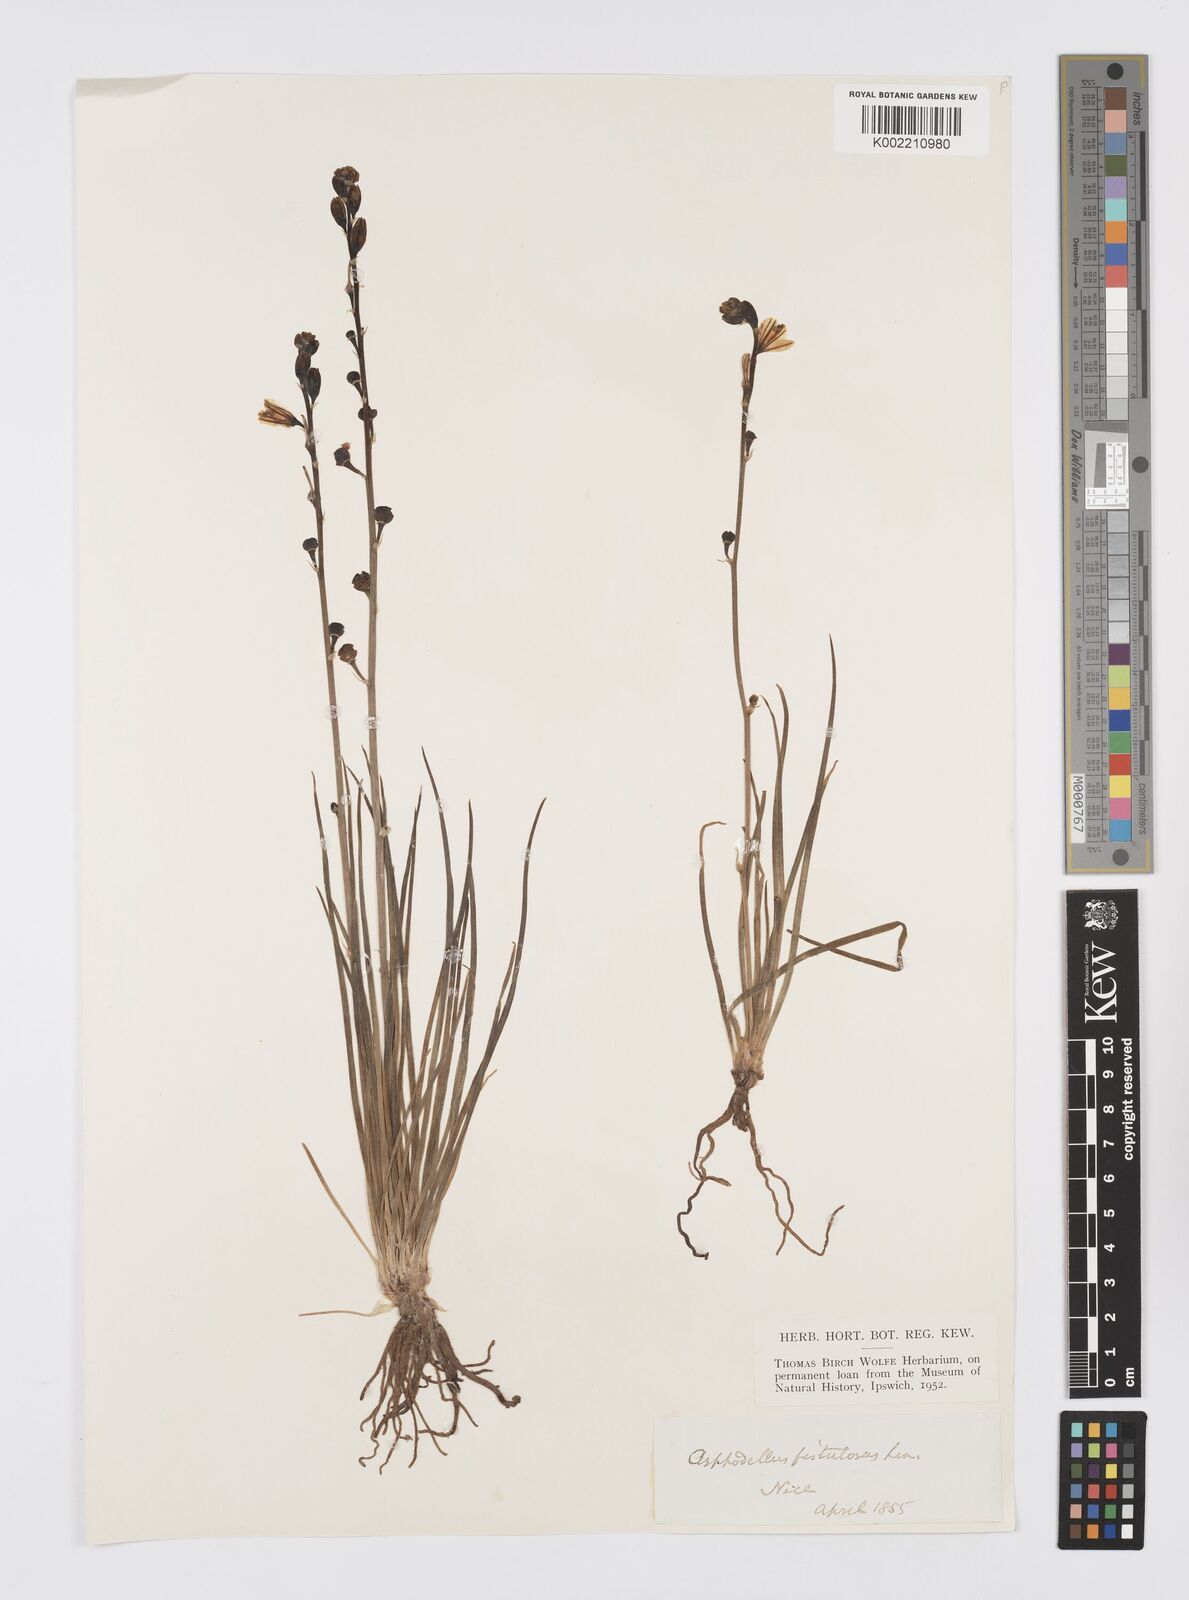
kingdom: Plantae
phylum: Tracheophyta
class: Liliopsida
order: Asparagales
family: Asphodelaceae
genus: Asphodelus
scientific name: Asphodelus fistulosus
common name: Onionweed
